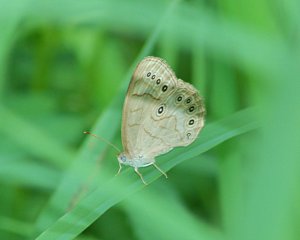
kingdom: Animalia
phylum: Arthropoda
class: Insecta
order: Lepidoptera
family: Nymphalidae
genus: Lethe
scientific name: Lethe eurydice
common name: Eyed Brown
